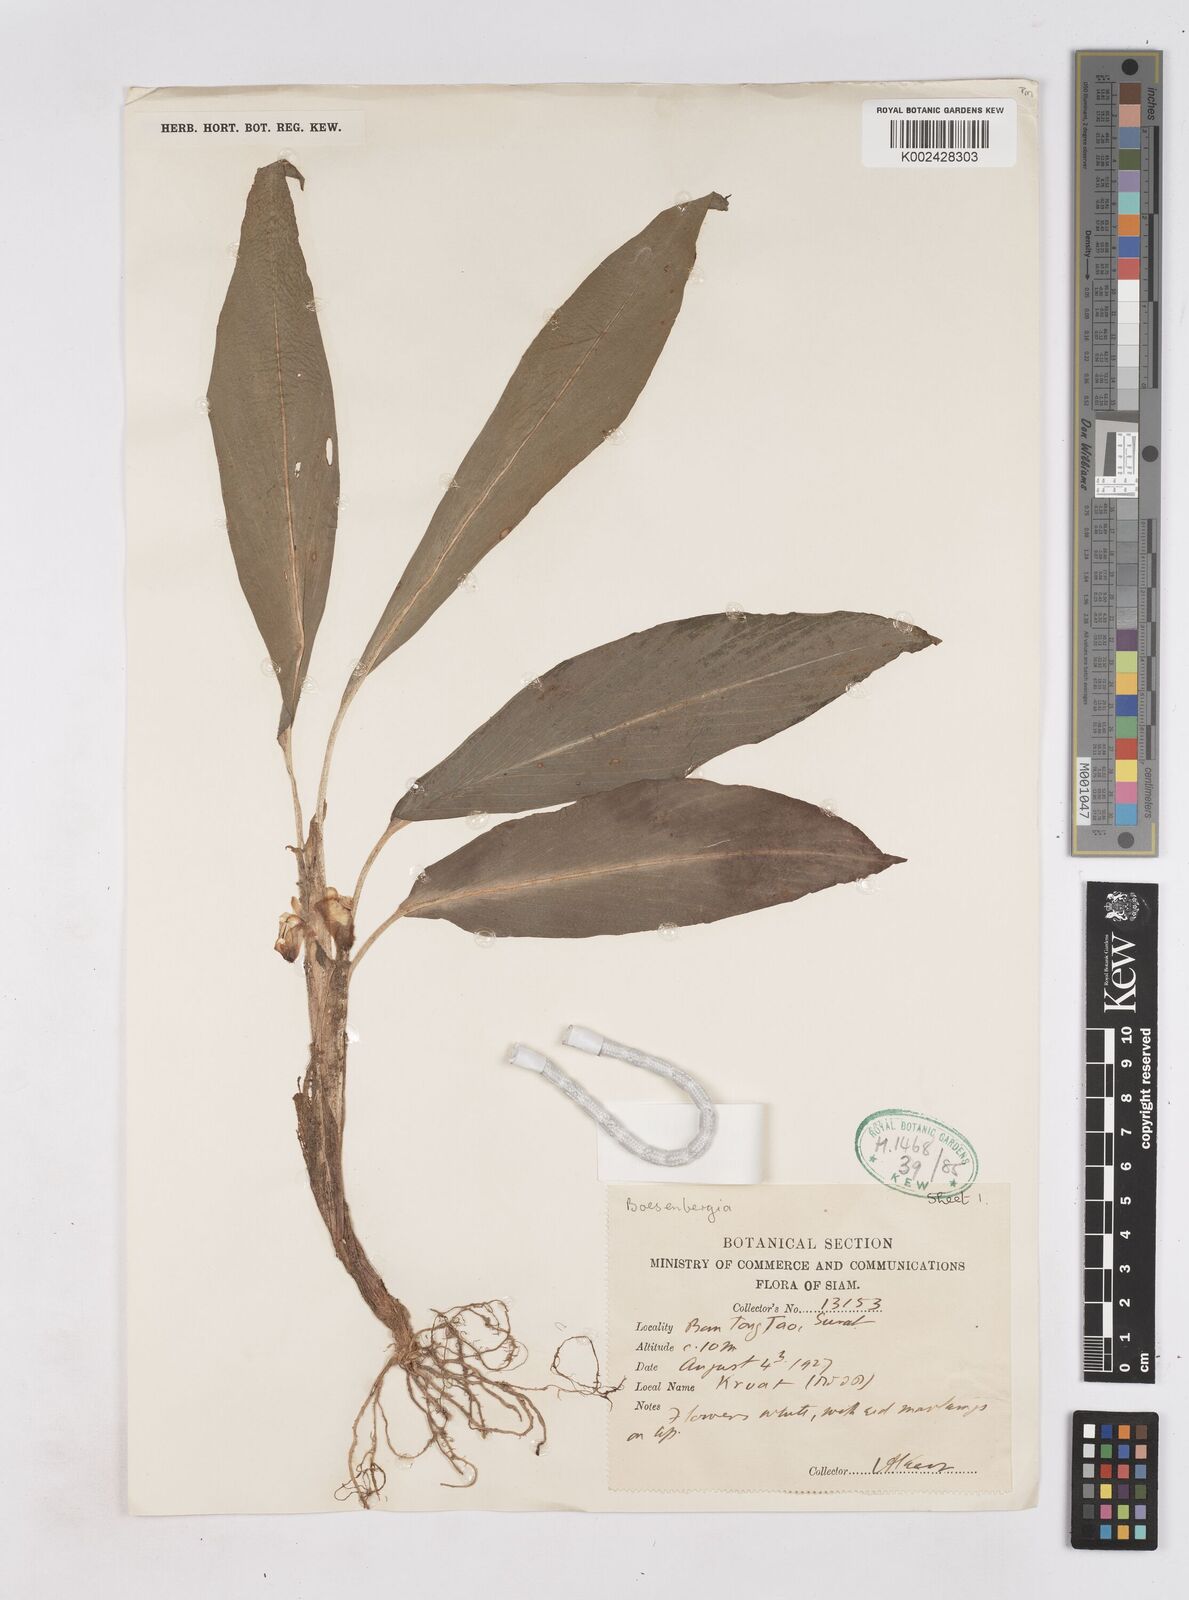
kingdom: Plantae
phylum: Tracheophyta
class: Liliopsida
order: Zingiberales
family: Zingiberaceae
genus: Boesenbergia
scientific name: Boesenbergia longipes
